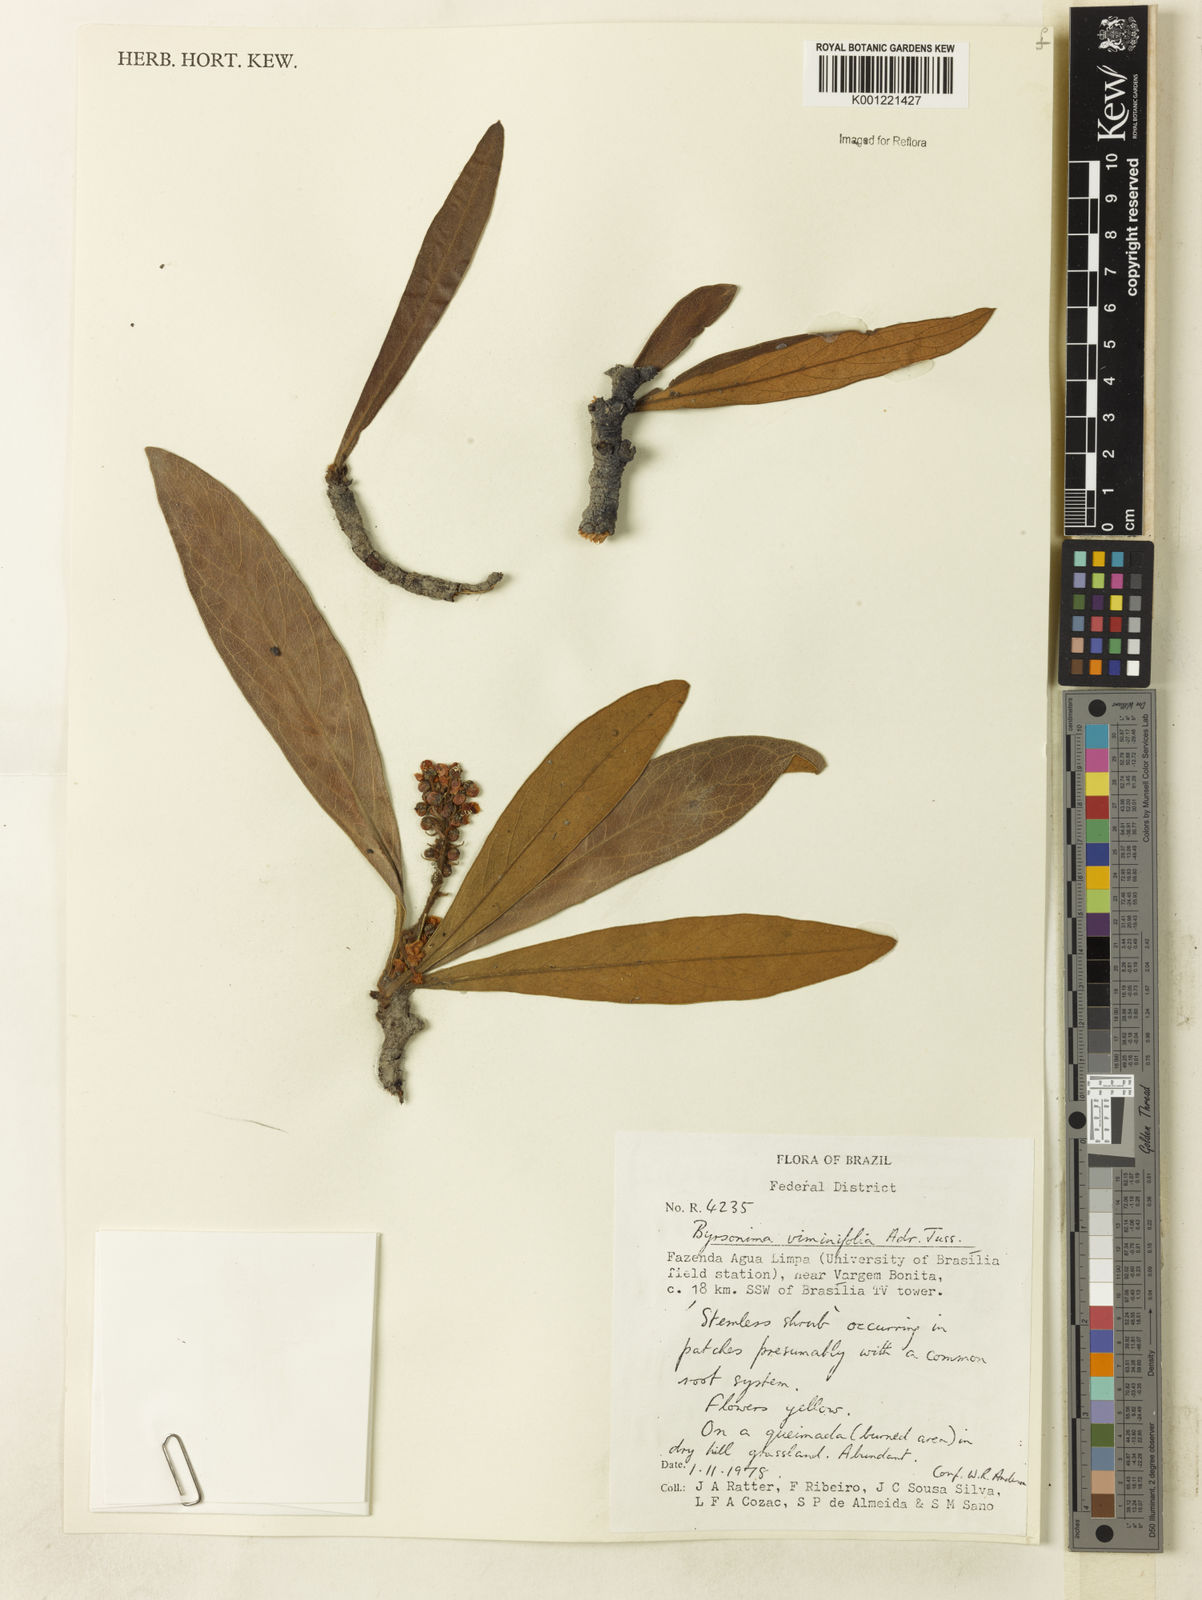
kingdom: Plantae
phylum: Tracheophyta
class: Magnoliopsida
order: Malpighiales
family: Malpighiaceae
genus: Byrsonima
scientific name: Byrsonima viminifolia
